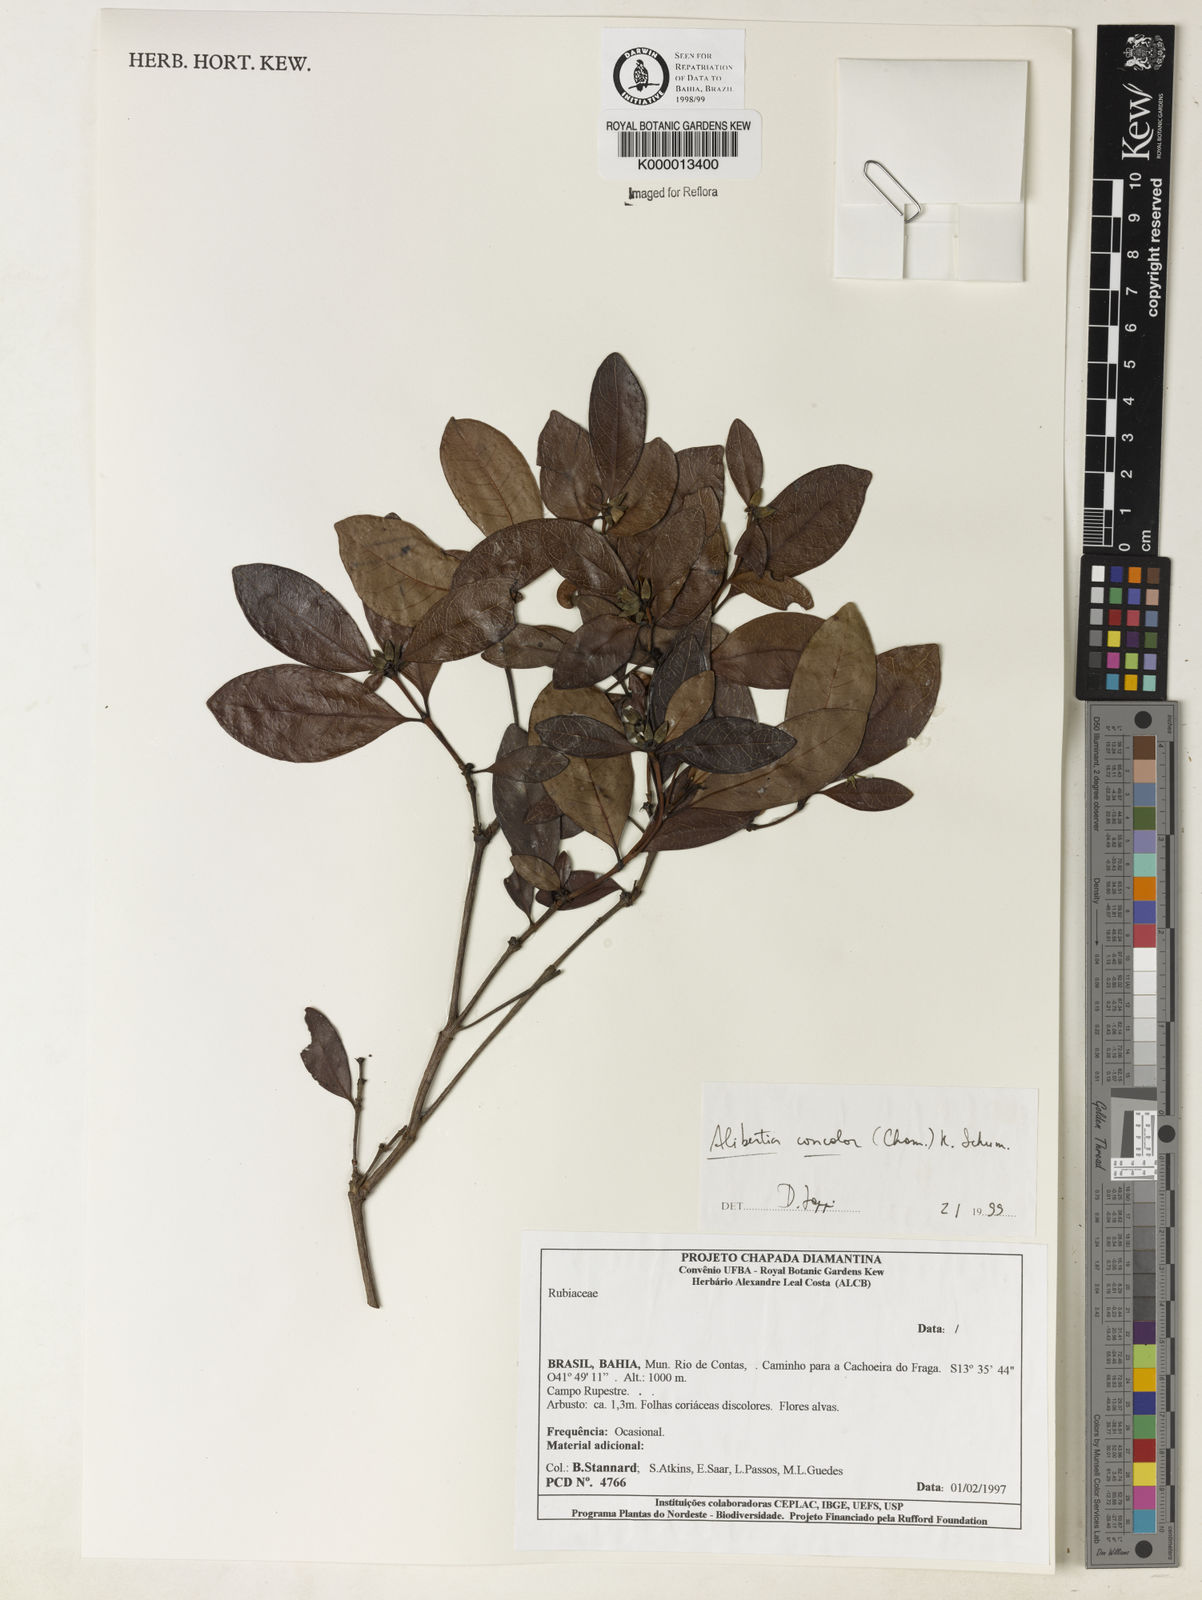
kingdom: Plantae
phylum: Tracheophyta
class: Magnoliopsida
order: Gentianales
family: Rubiaceae
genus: Cordiera
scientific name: Cordiera concolor
